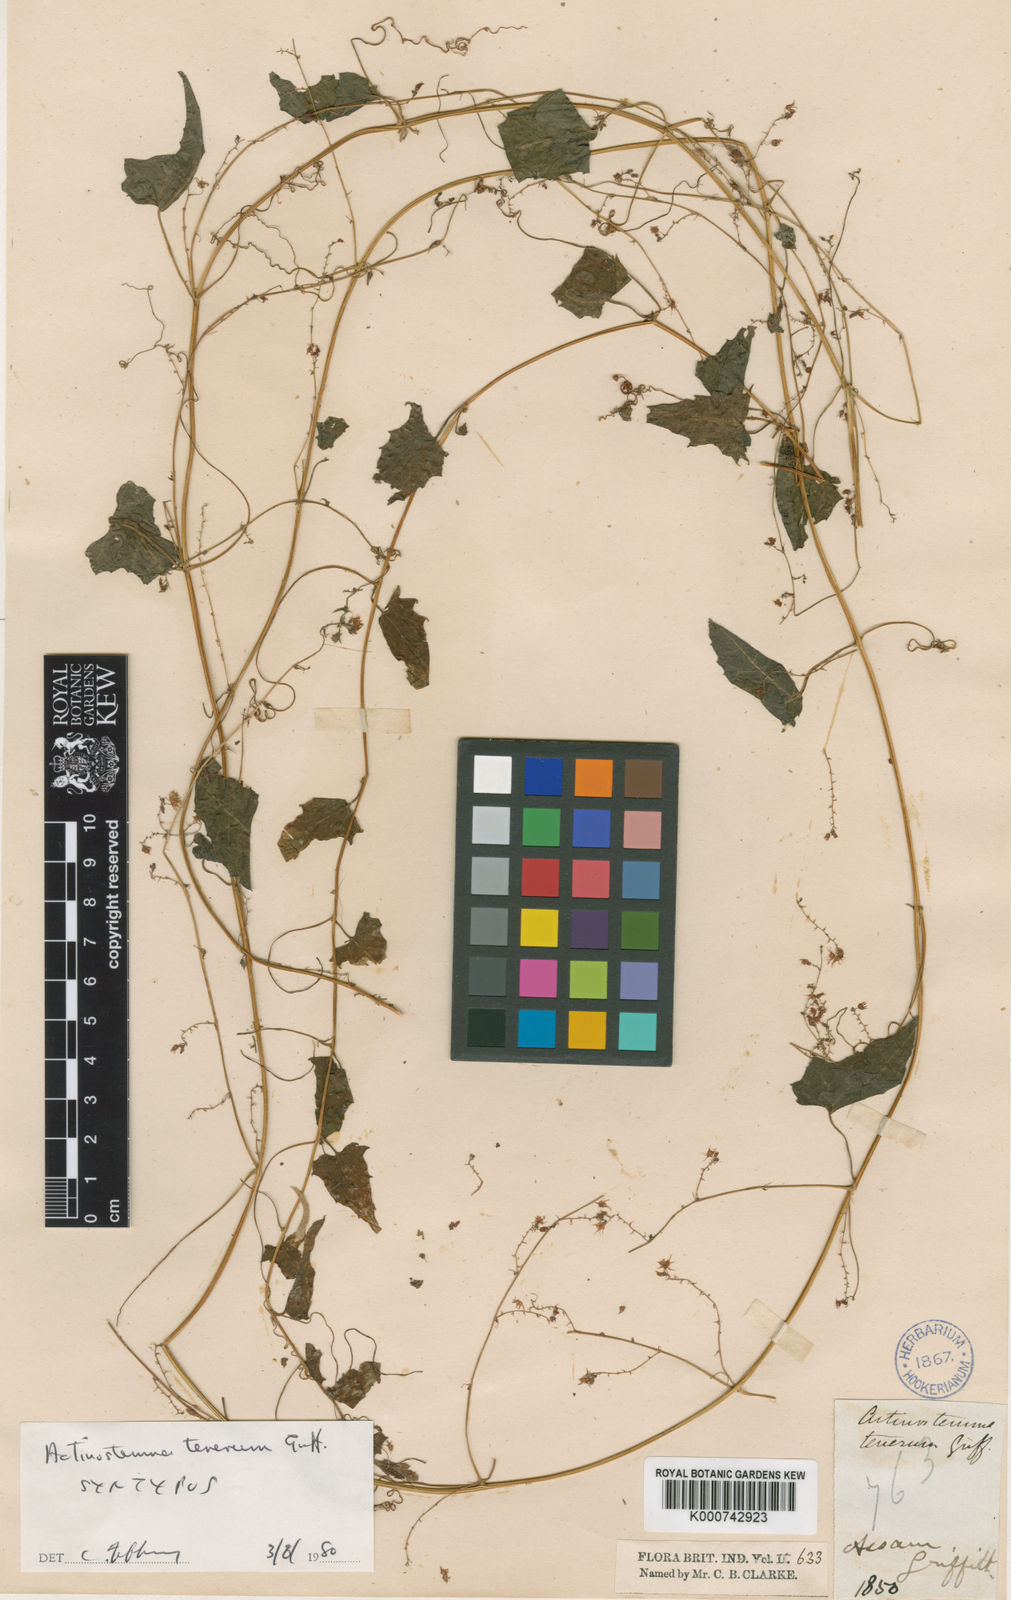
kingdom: Plantae
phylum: Tracheophyta
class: Magnoliopsida
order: Cucurbitales
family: Cucurbitaceae
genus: Actinostemma
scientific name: Actinostemma tenerum
